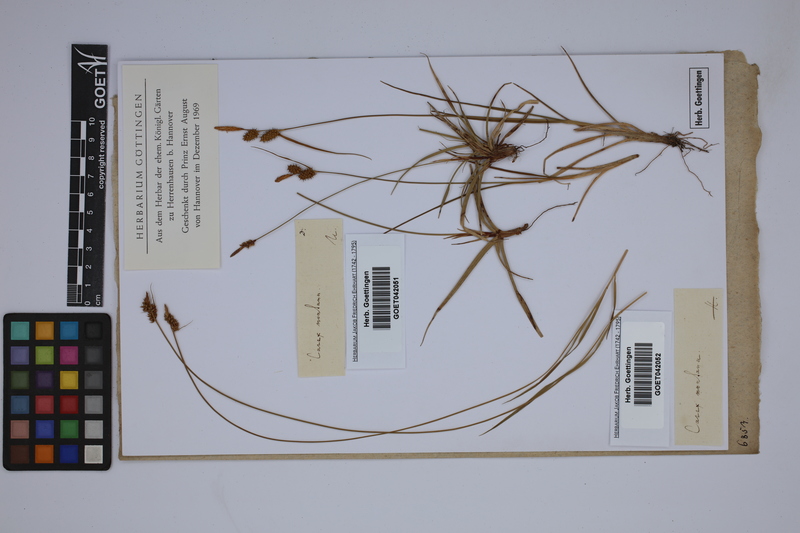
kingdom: Plantae
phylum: Tracheophyta
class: Liliopsida
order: Poales
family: Cyperaceae
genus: Carex
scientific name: Carex montana
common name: Soft-leaved sedge
